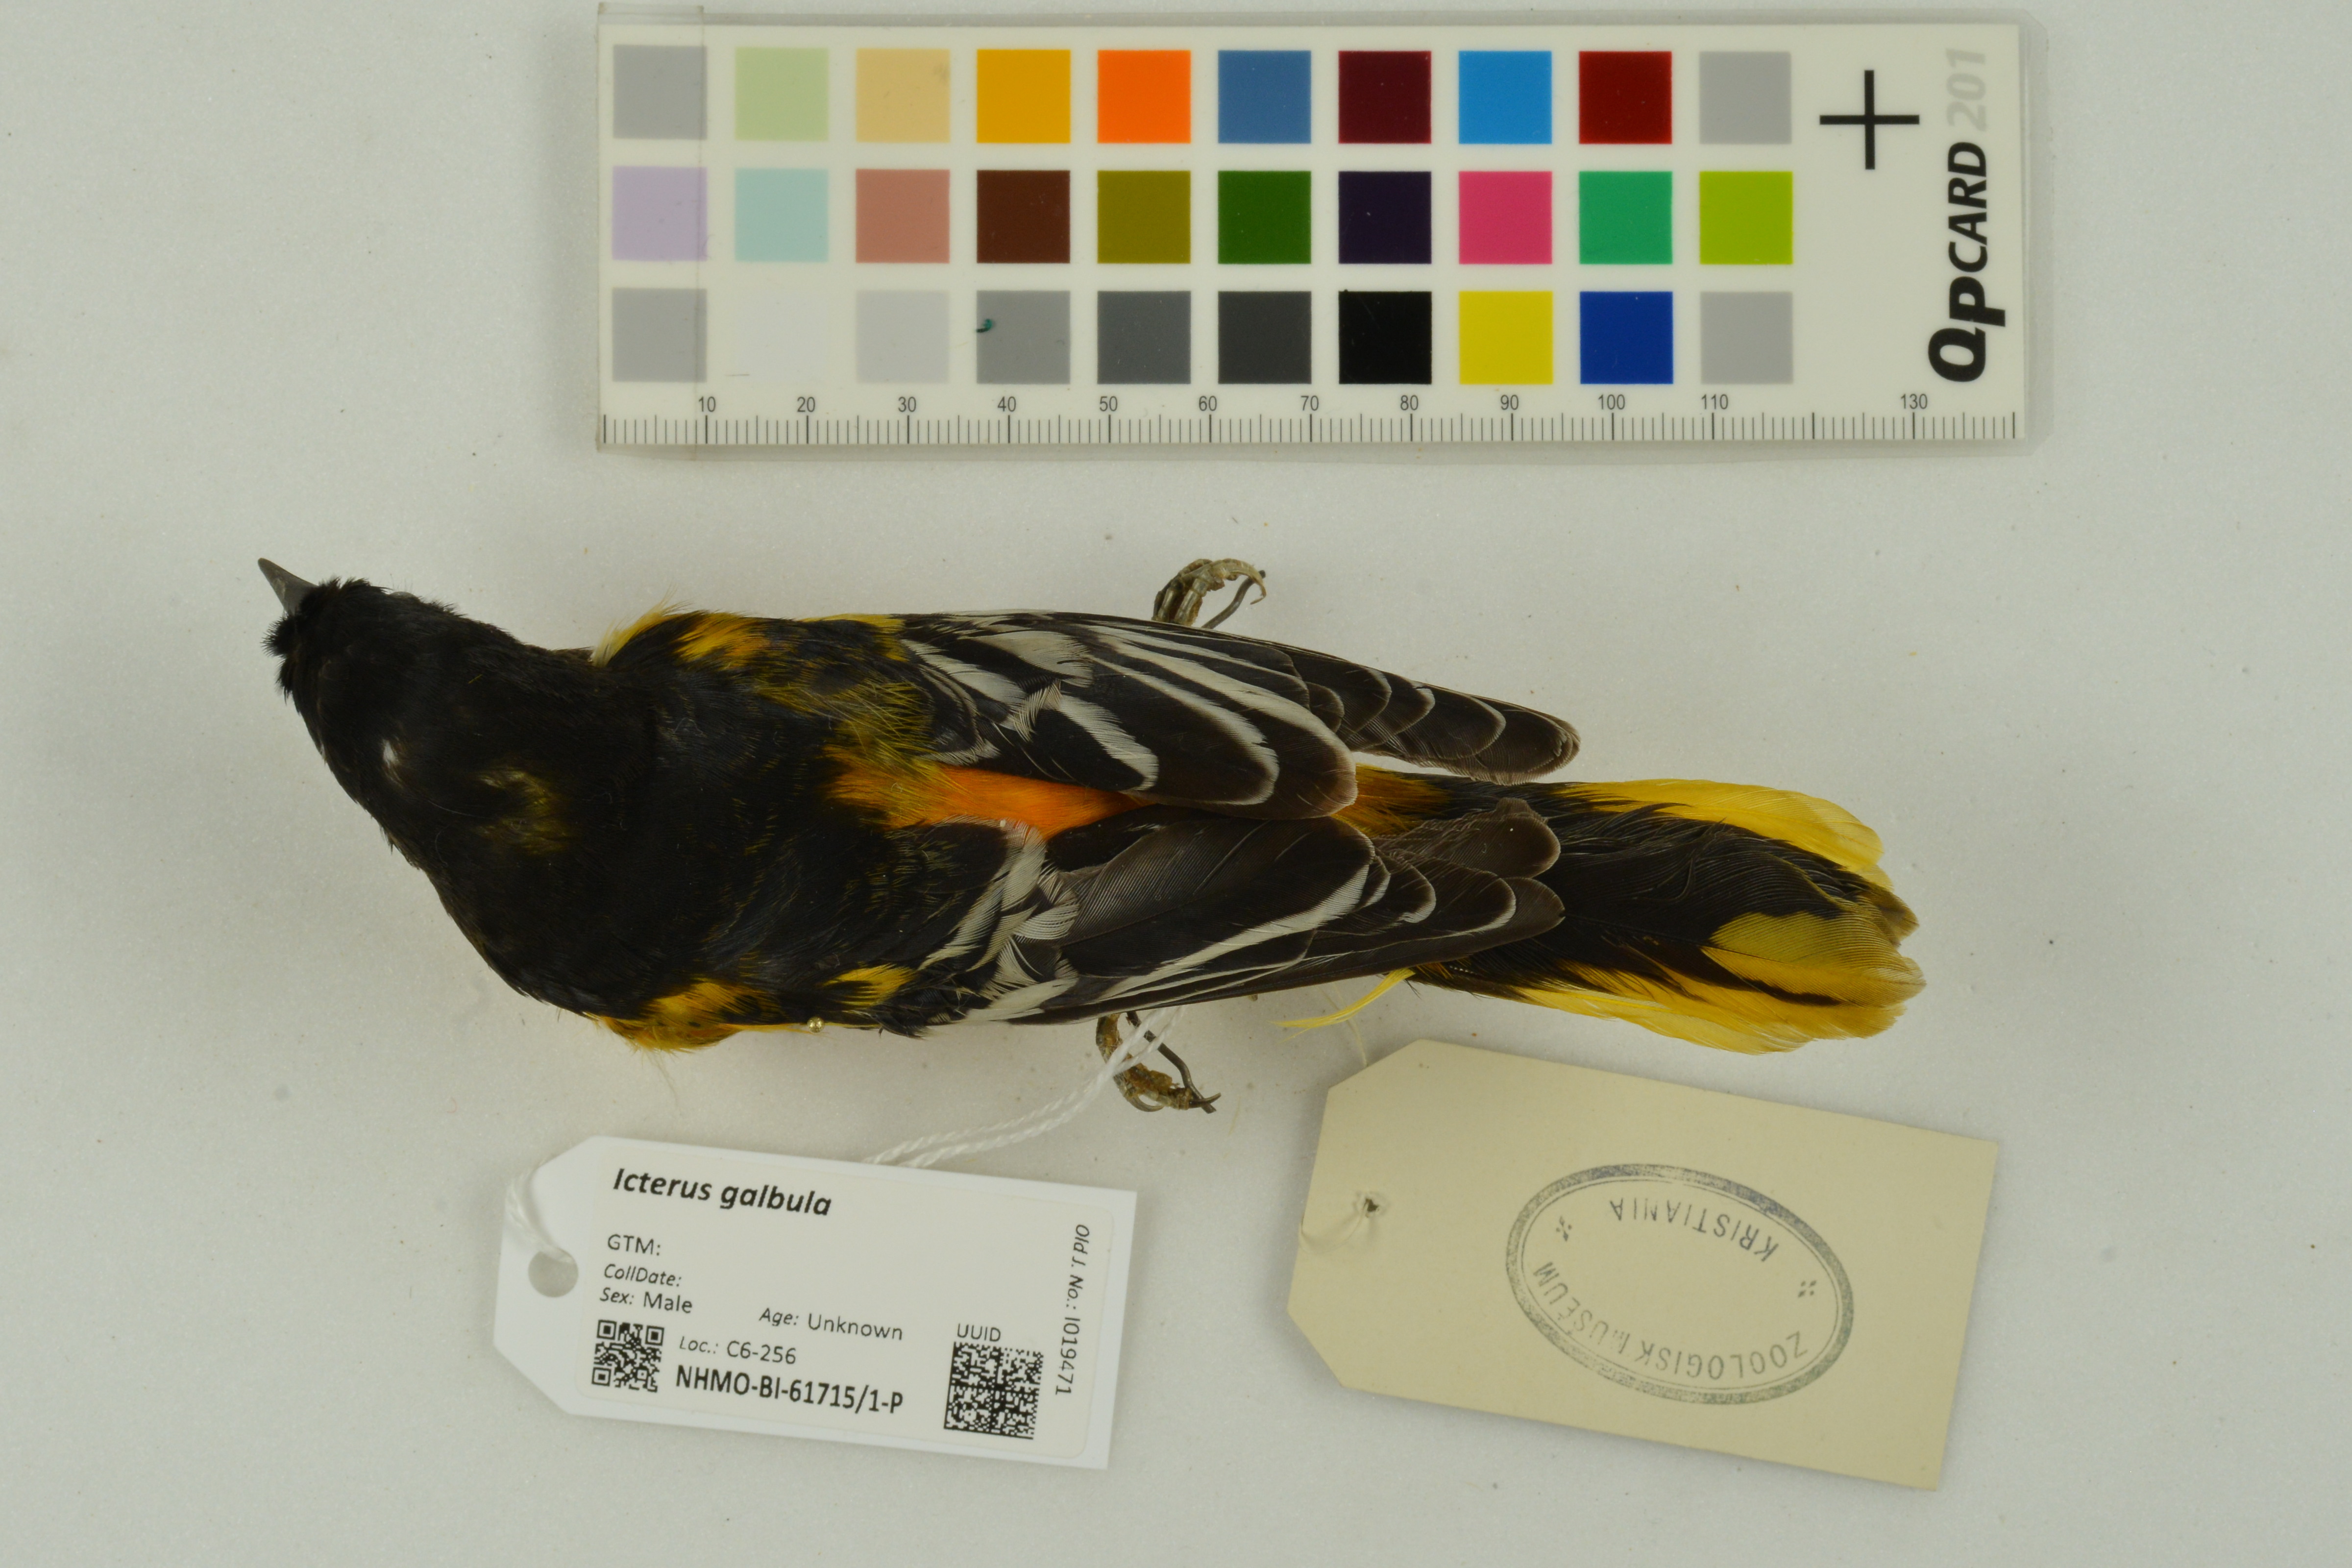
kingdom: Animalia
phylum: Chordata
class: Aves
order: Passeriformes
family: Icteridae
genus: Icterus
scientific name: Icterus galbula
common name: Baltimore oriole
